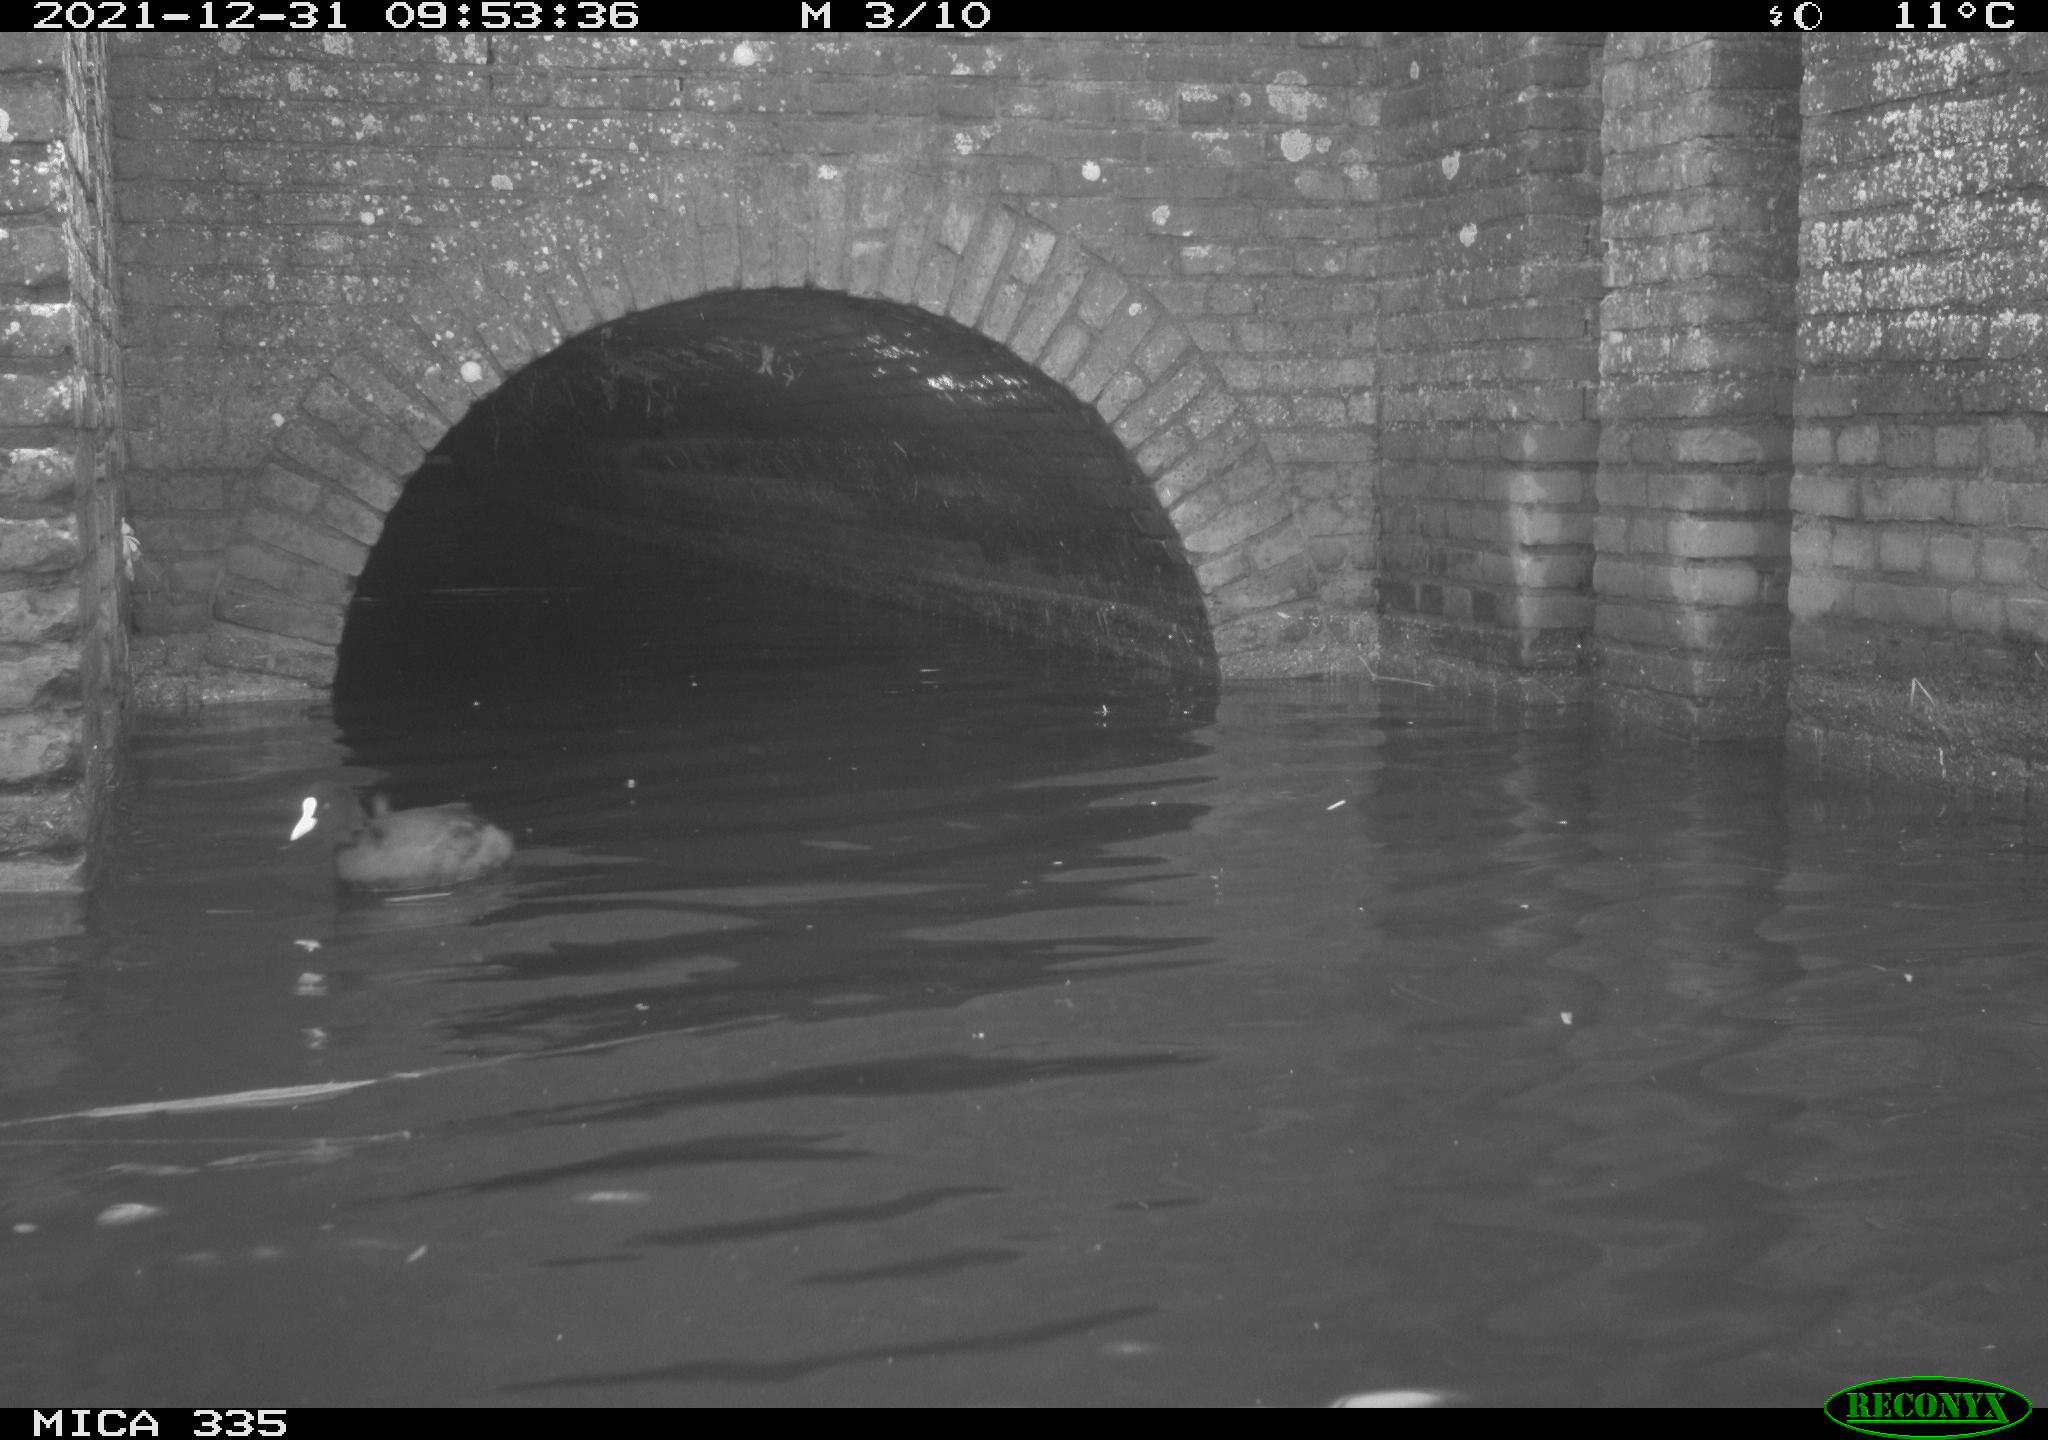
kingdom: Animalia
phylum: Chordata
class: Aves
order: Gruiformes
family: Rallidae
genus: Fulica
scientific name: Fulica atra
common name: Eurasian coot
